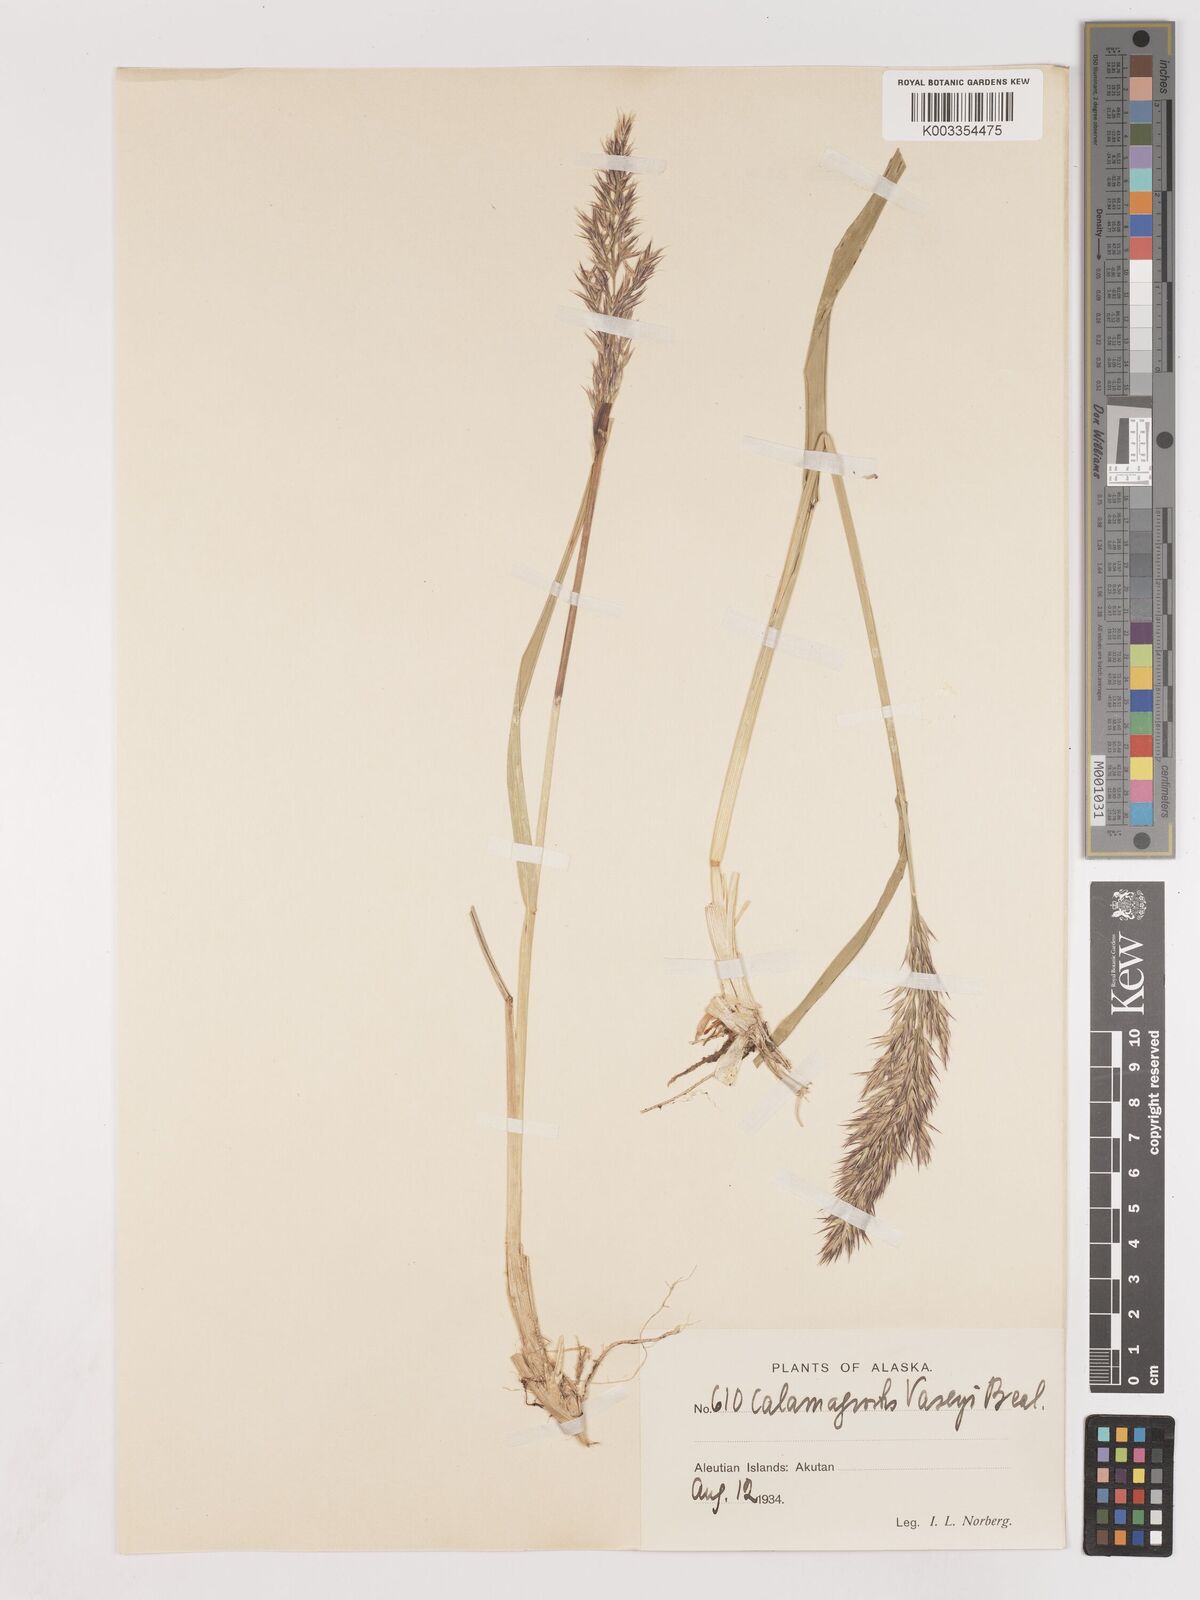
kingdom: Plantae
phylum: Tracheophyta
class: Liliopsida
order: Poales
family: Poaceae
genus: Calamagrostis
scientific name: Calamagrostis purpurascens
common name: Purple reedgrass
